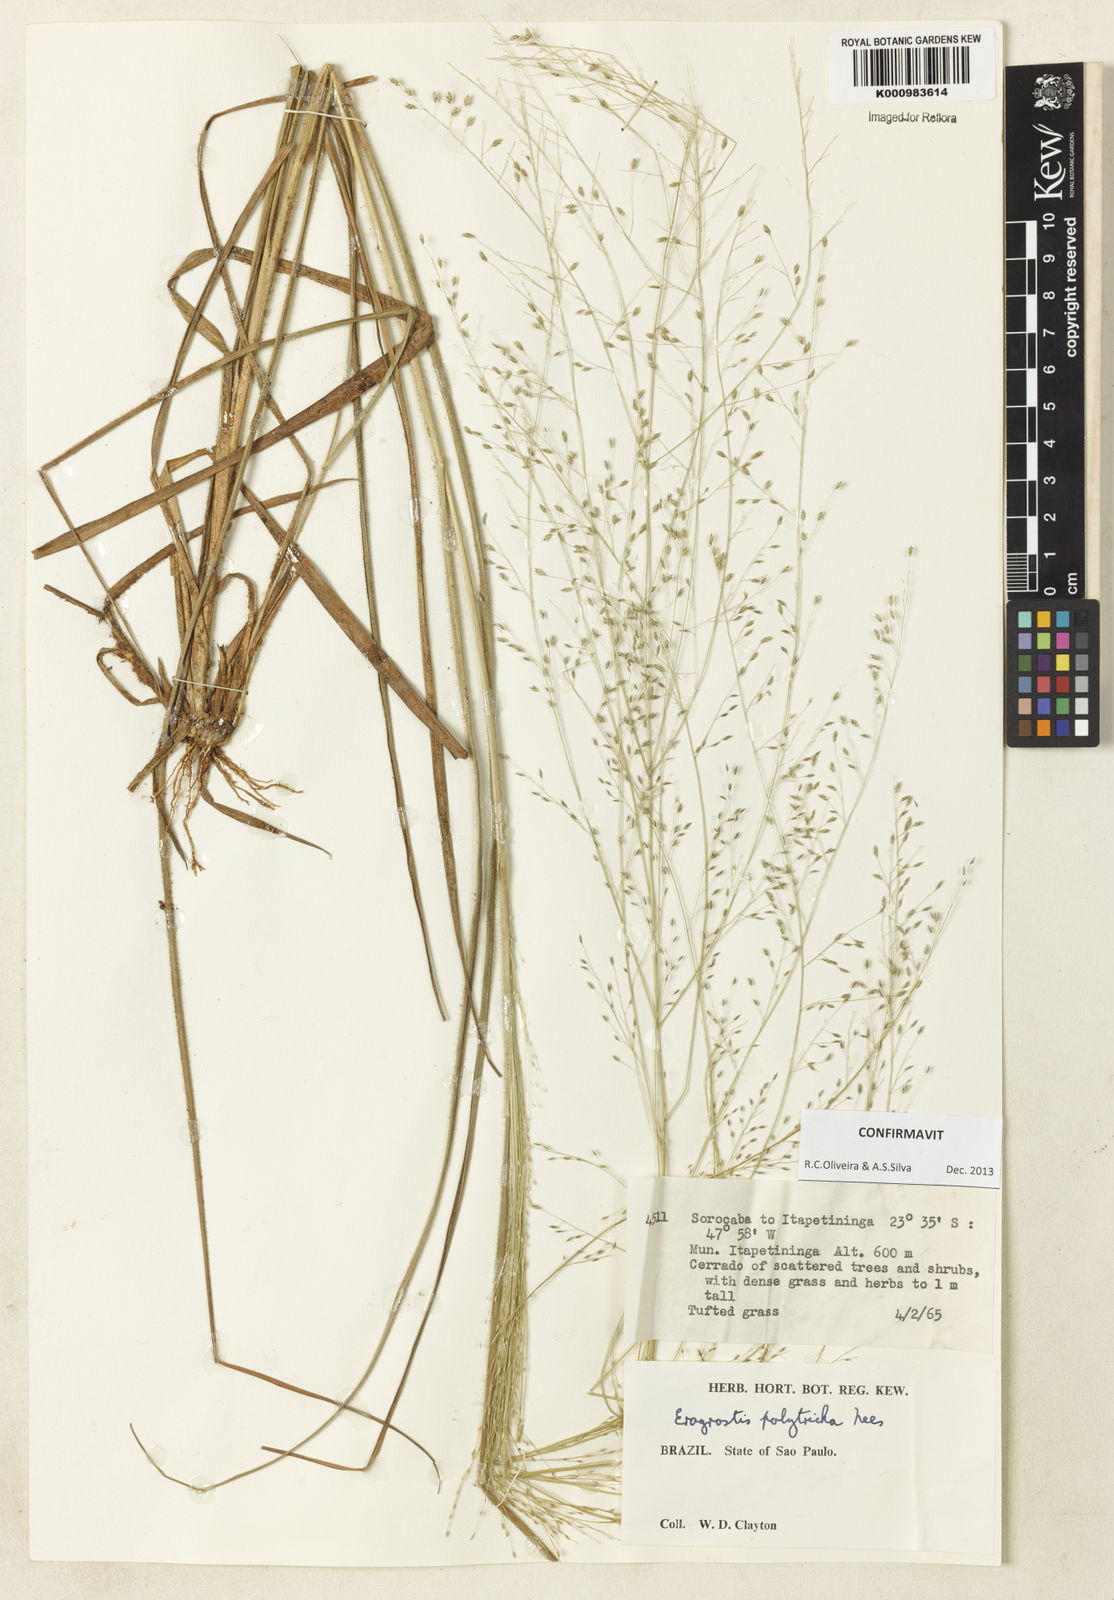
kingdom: Plantae
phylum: Tracheophyta
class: Liliopsida
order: Poales
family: Poaceae
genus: Eragrostis
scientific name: Eragrostis polytricha
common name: Hairy-sheath love grass
